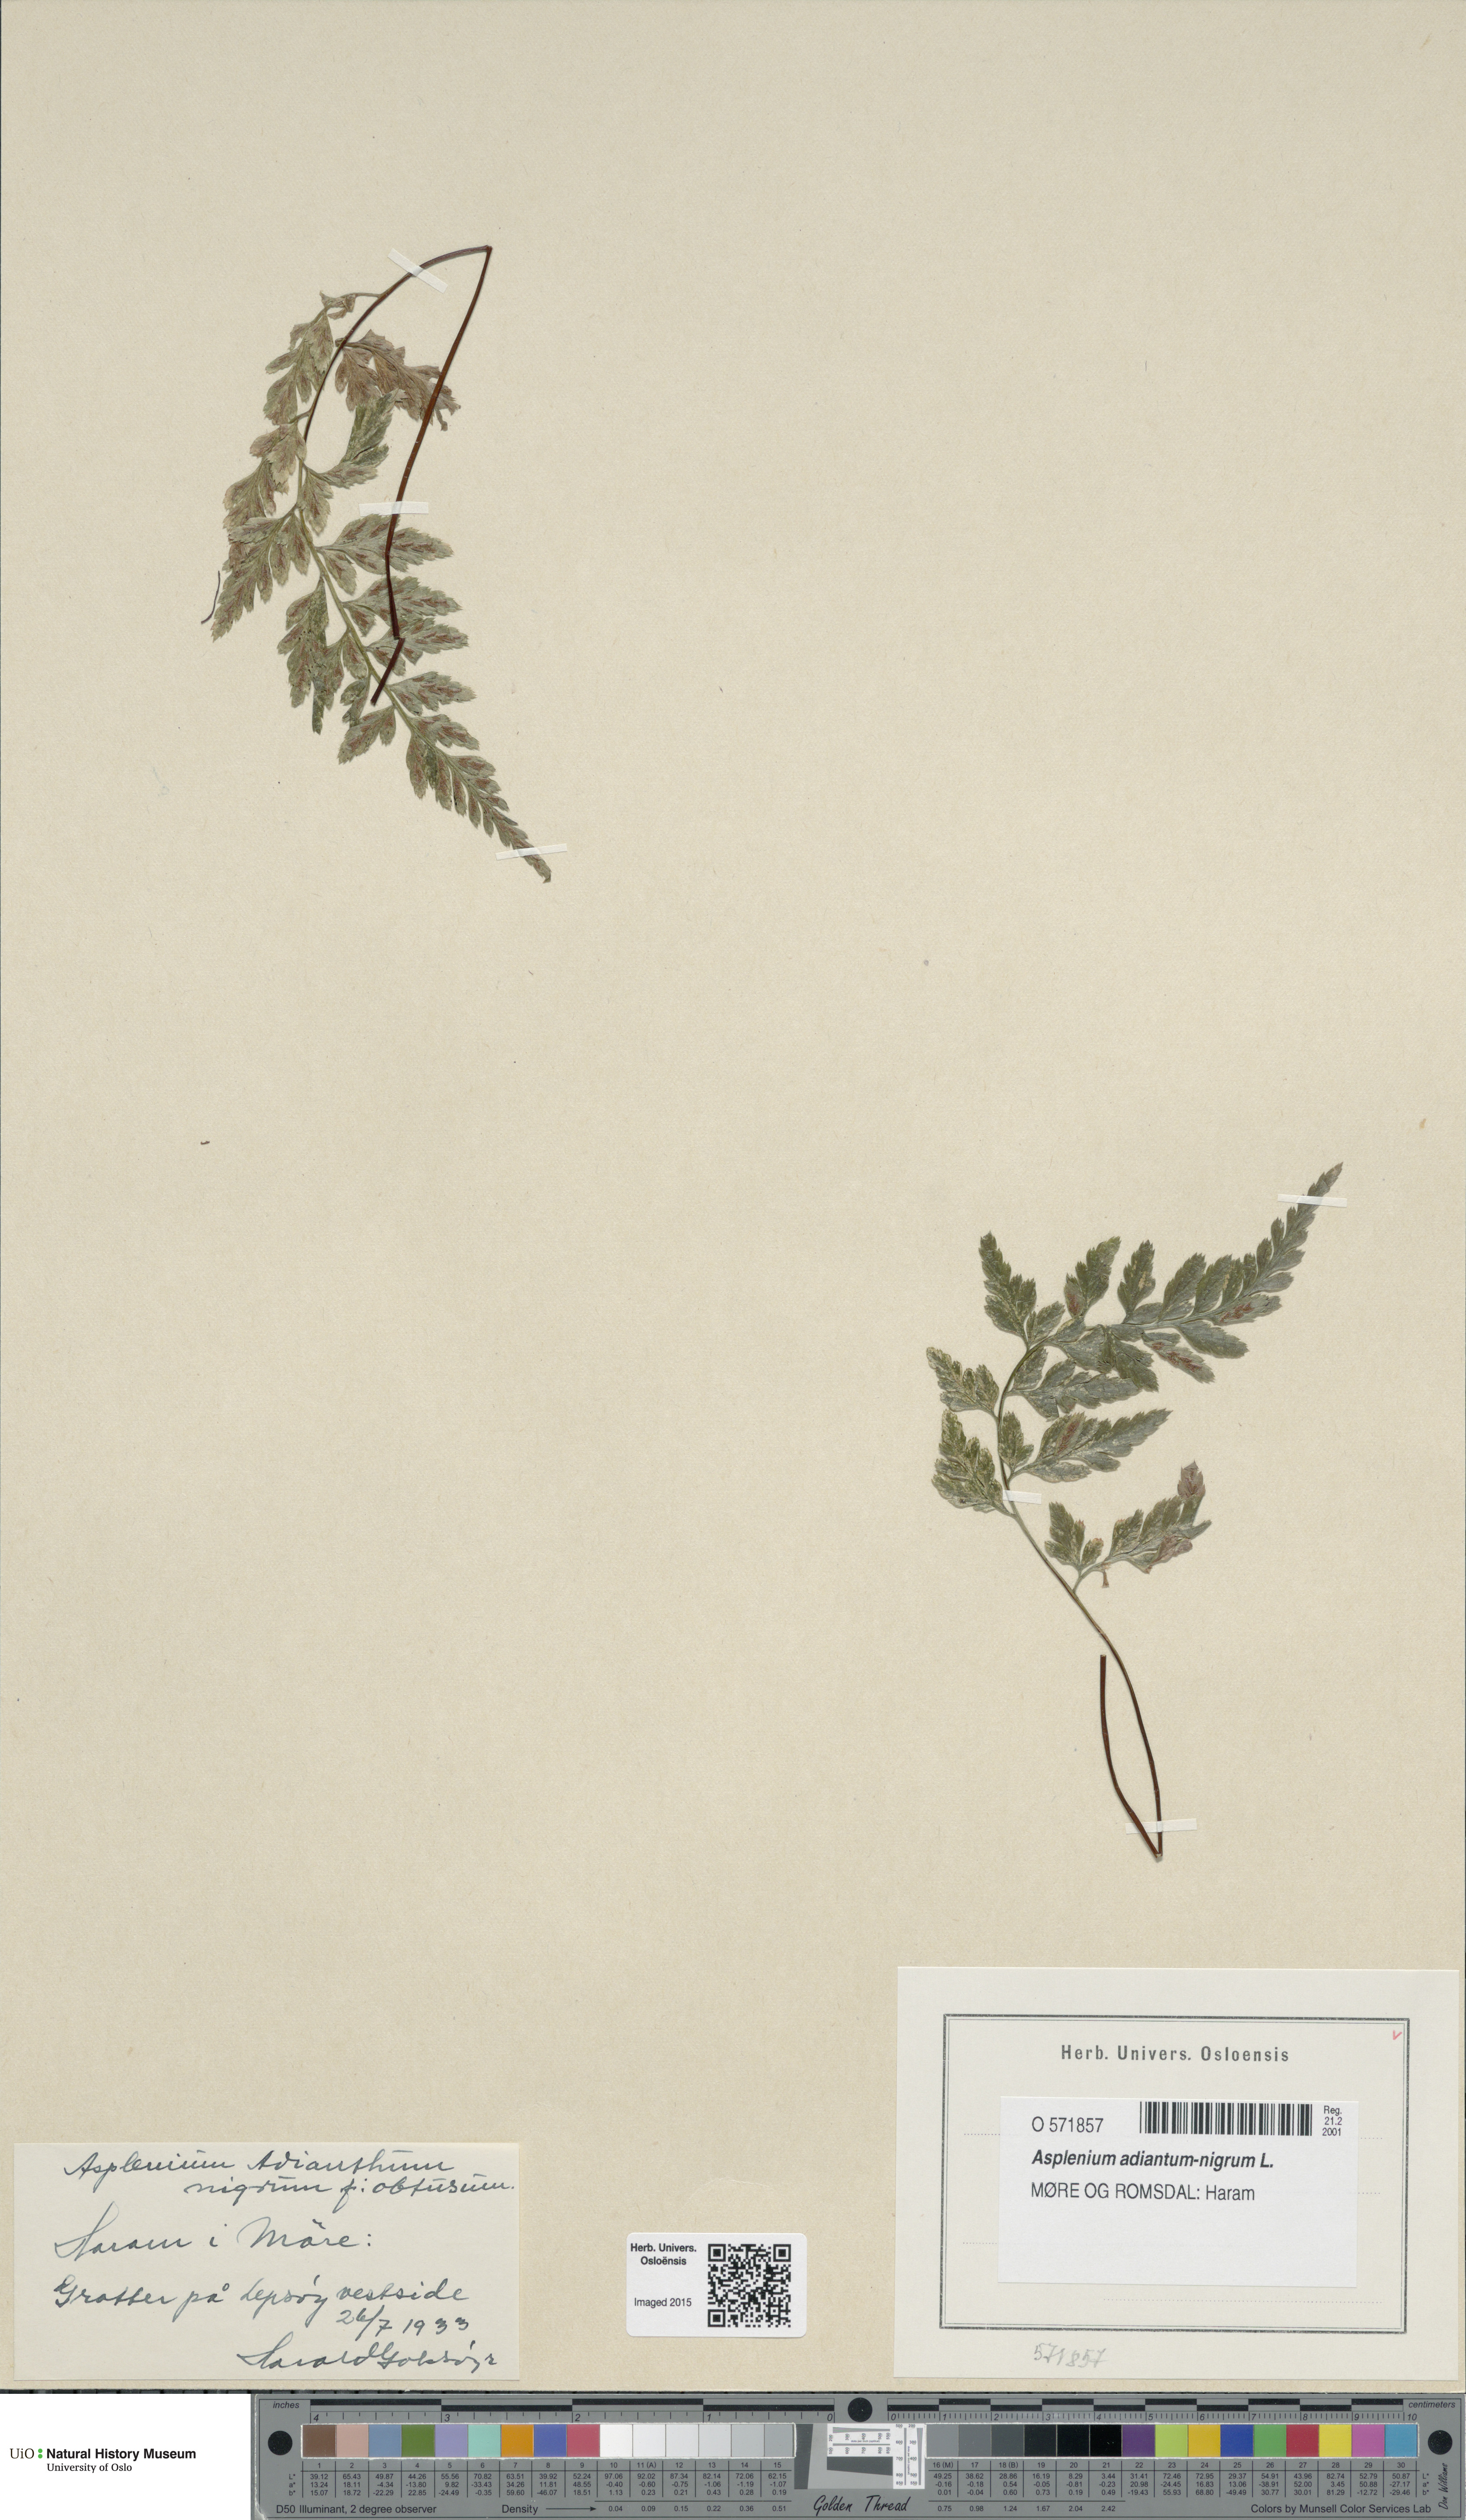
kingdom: Plantae
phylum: Tracheophyta
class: Polypodiopsida
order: Polypodiales
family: Aspleniaceae
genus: Asplenium
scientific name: Asplenium adiantum-nigrum
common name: Black spleenwort
